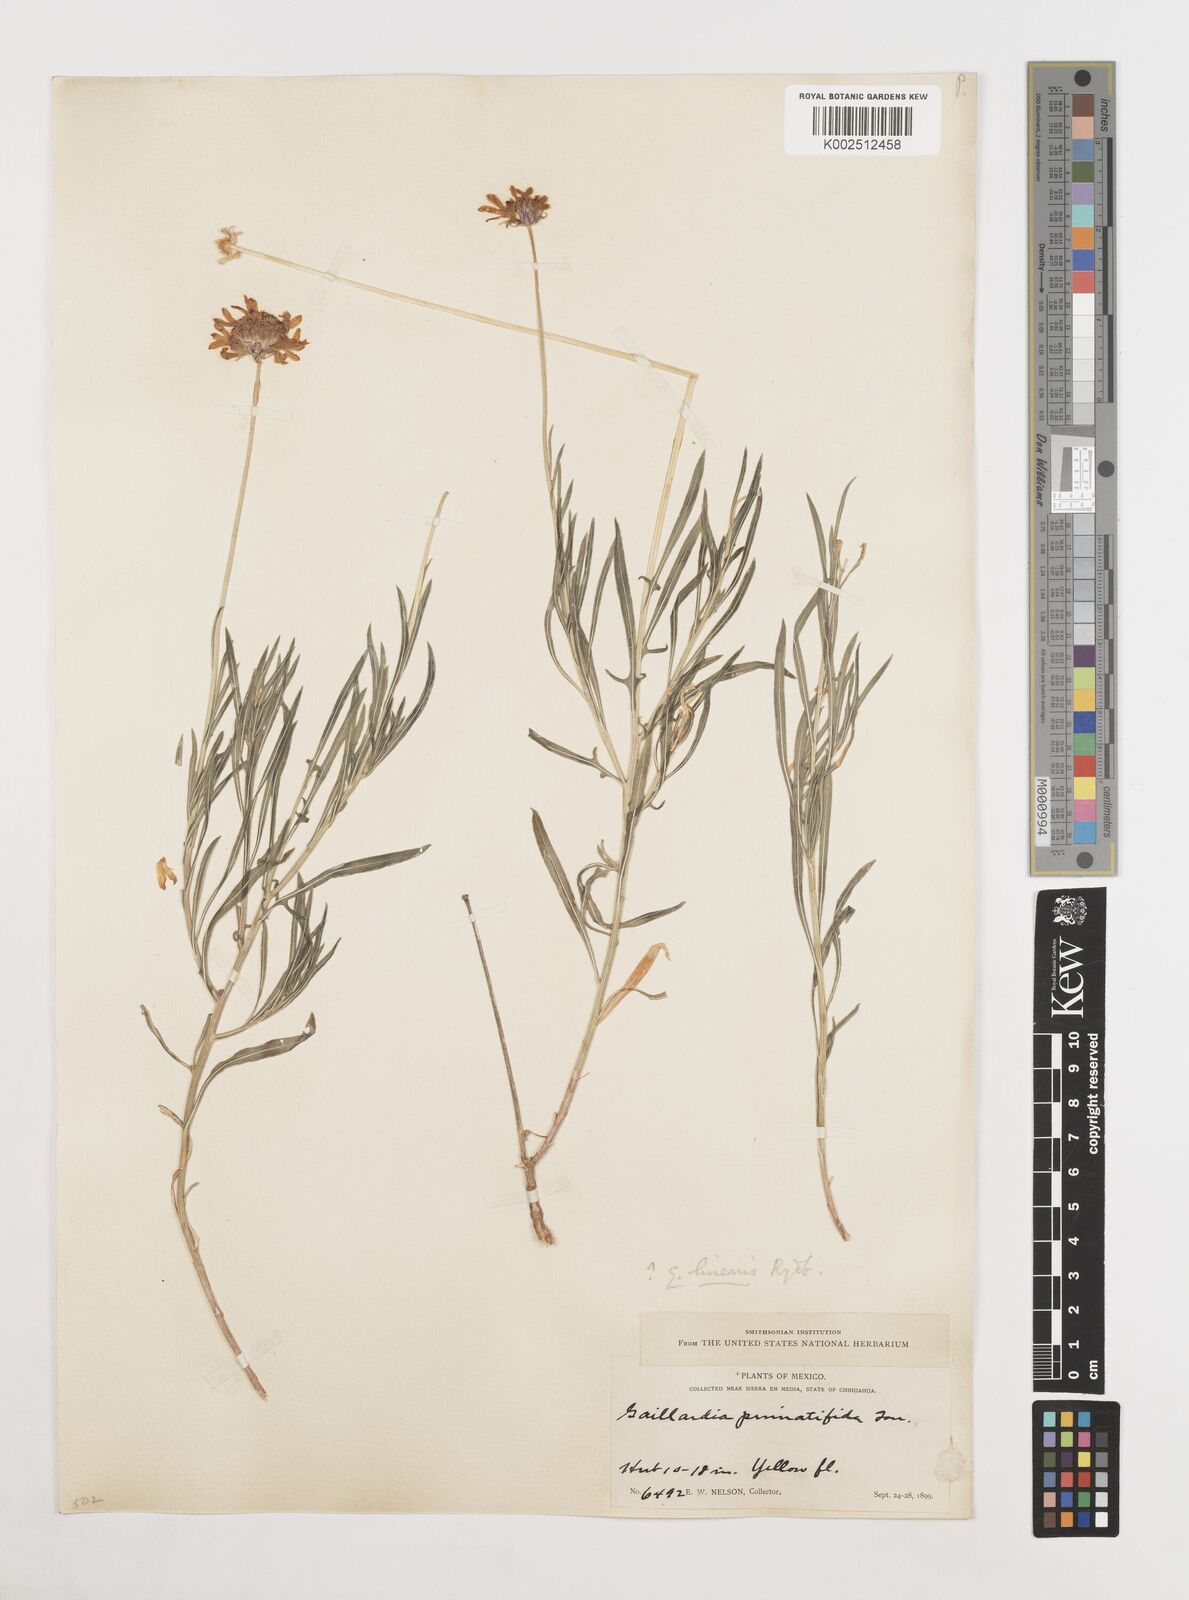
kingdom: Plantae
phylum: Tracheophyta
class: Magnoliopsida
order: Asterales
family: Asteraceae
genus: Gaillardia
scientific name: Gaillardia pinnatifida
